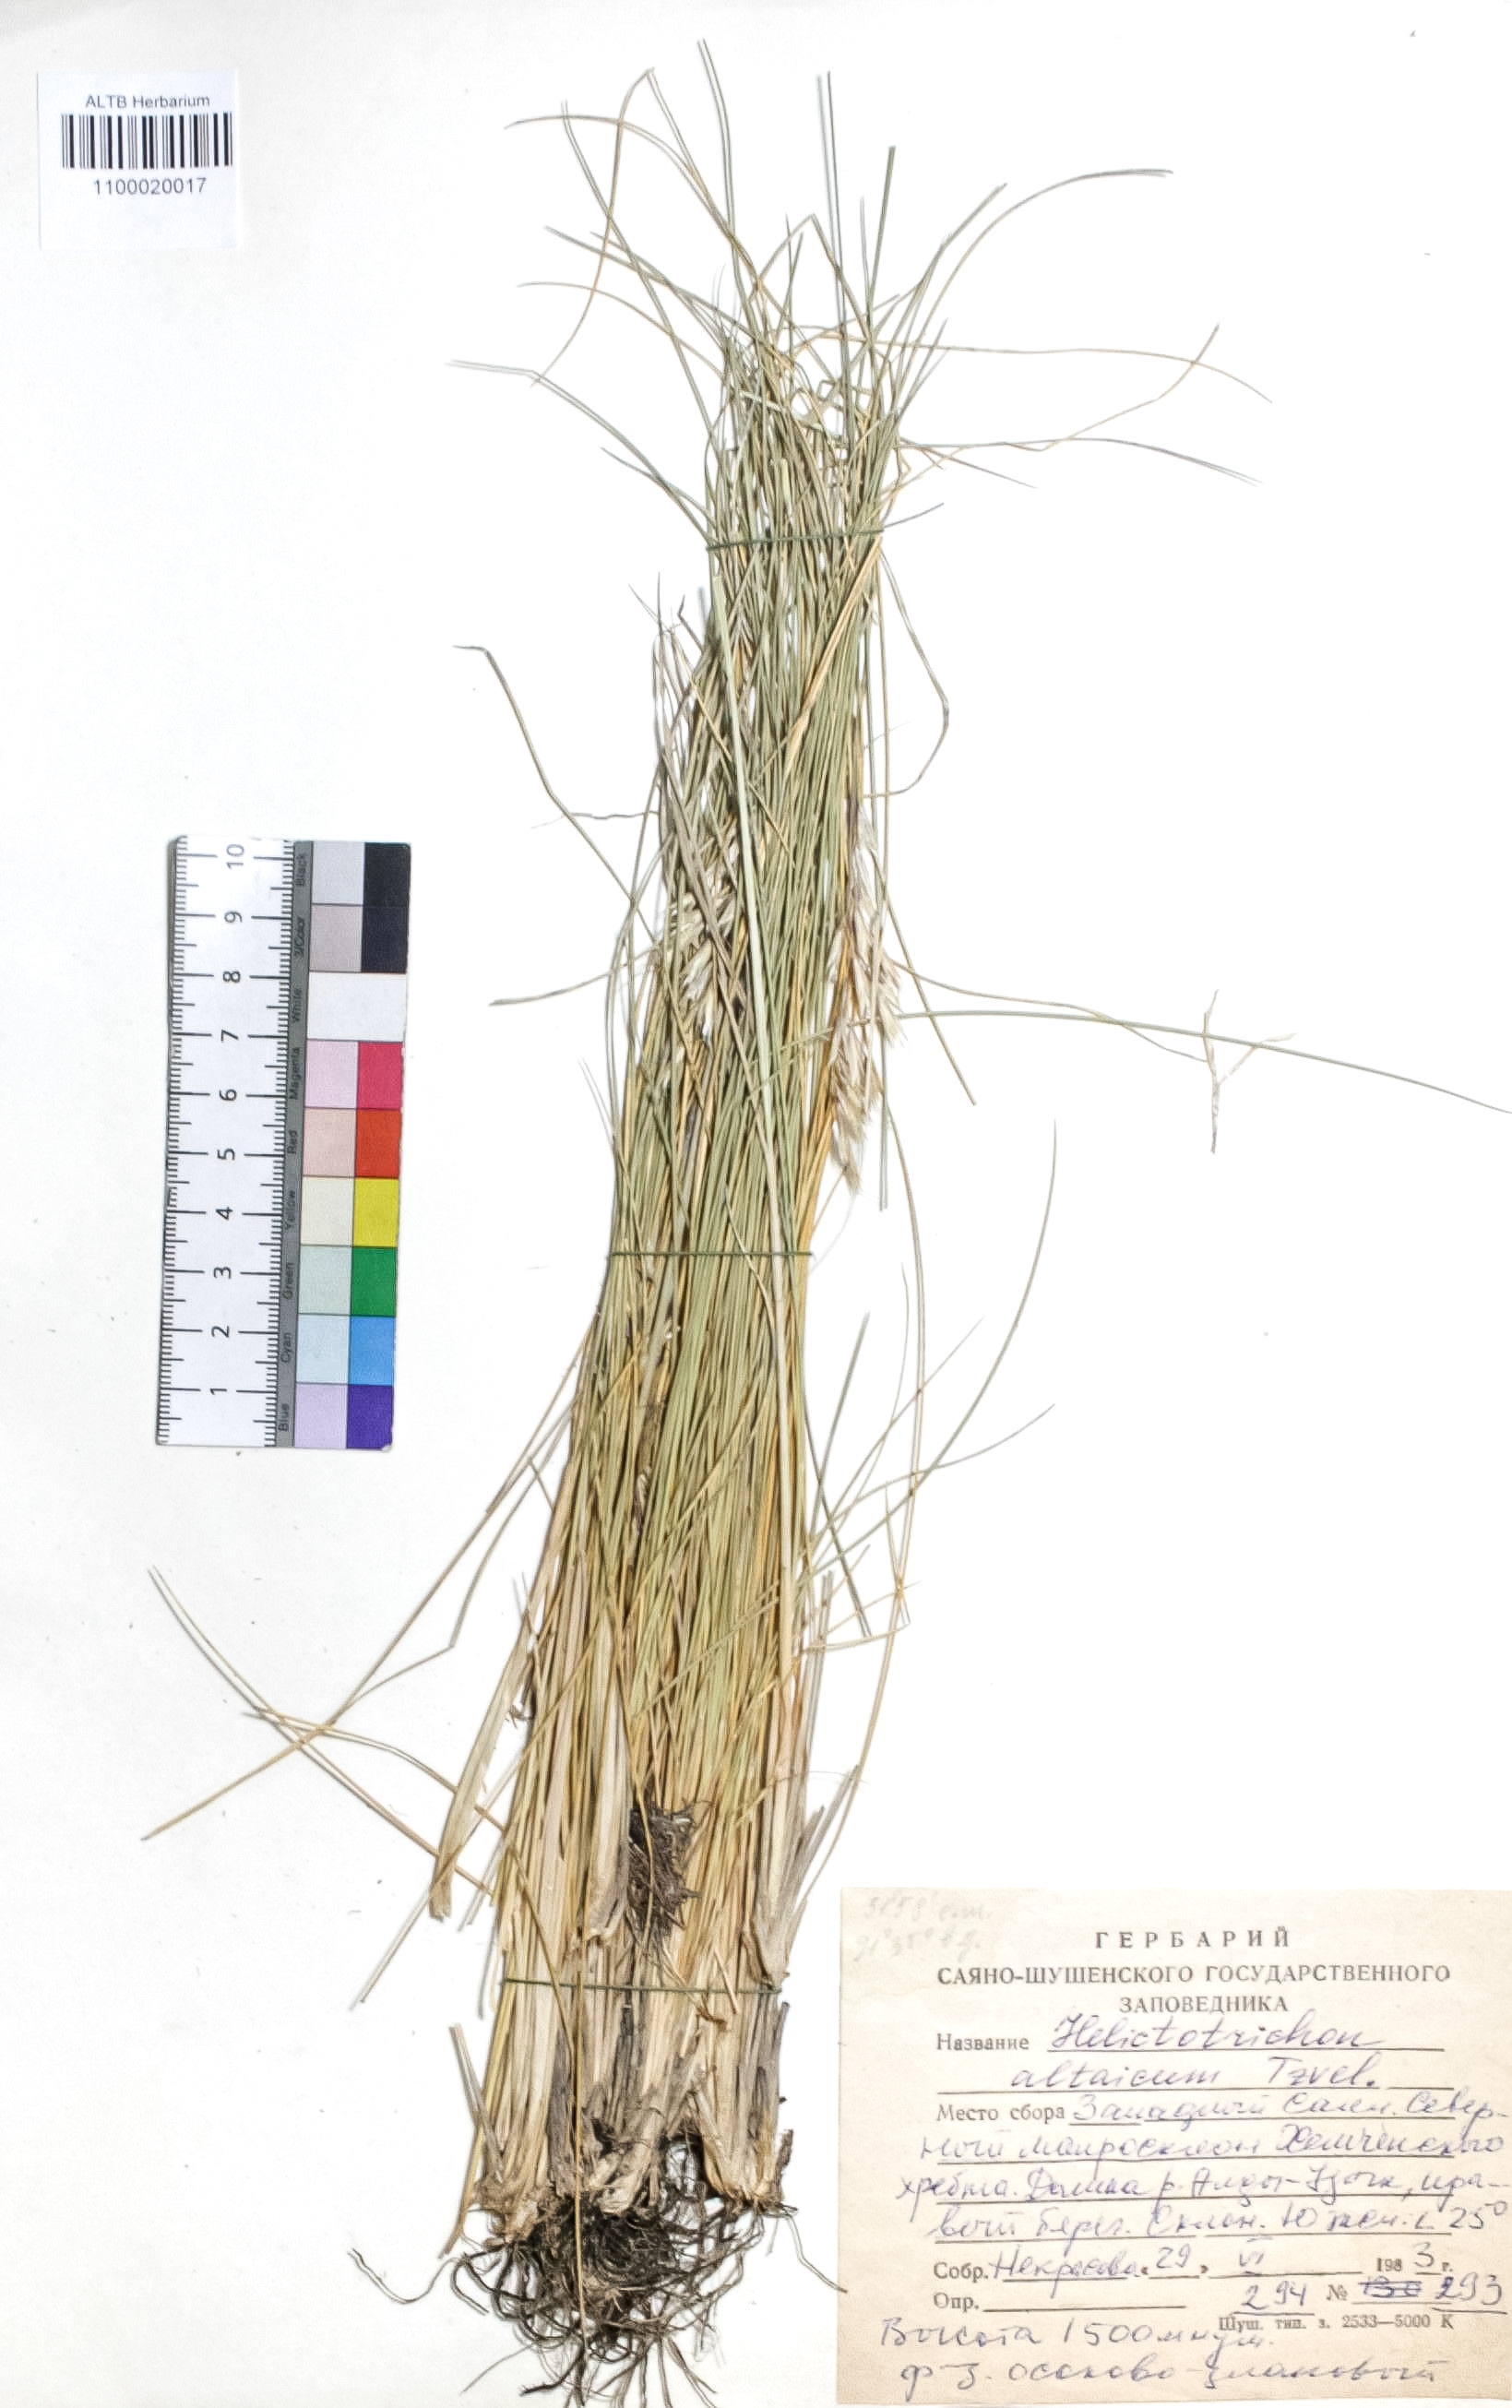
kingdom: Plantae
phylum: Tracheophyta
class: Liliopsida
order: Poales
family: Poaceae
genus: Helictotrichon
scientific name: Helictotrichon desertorum
